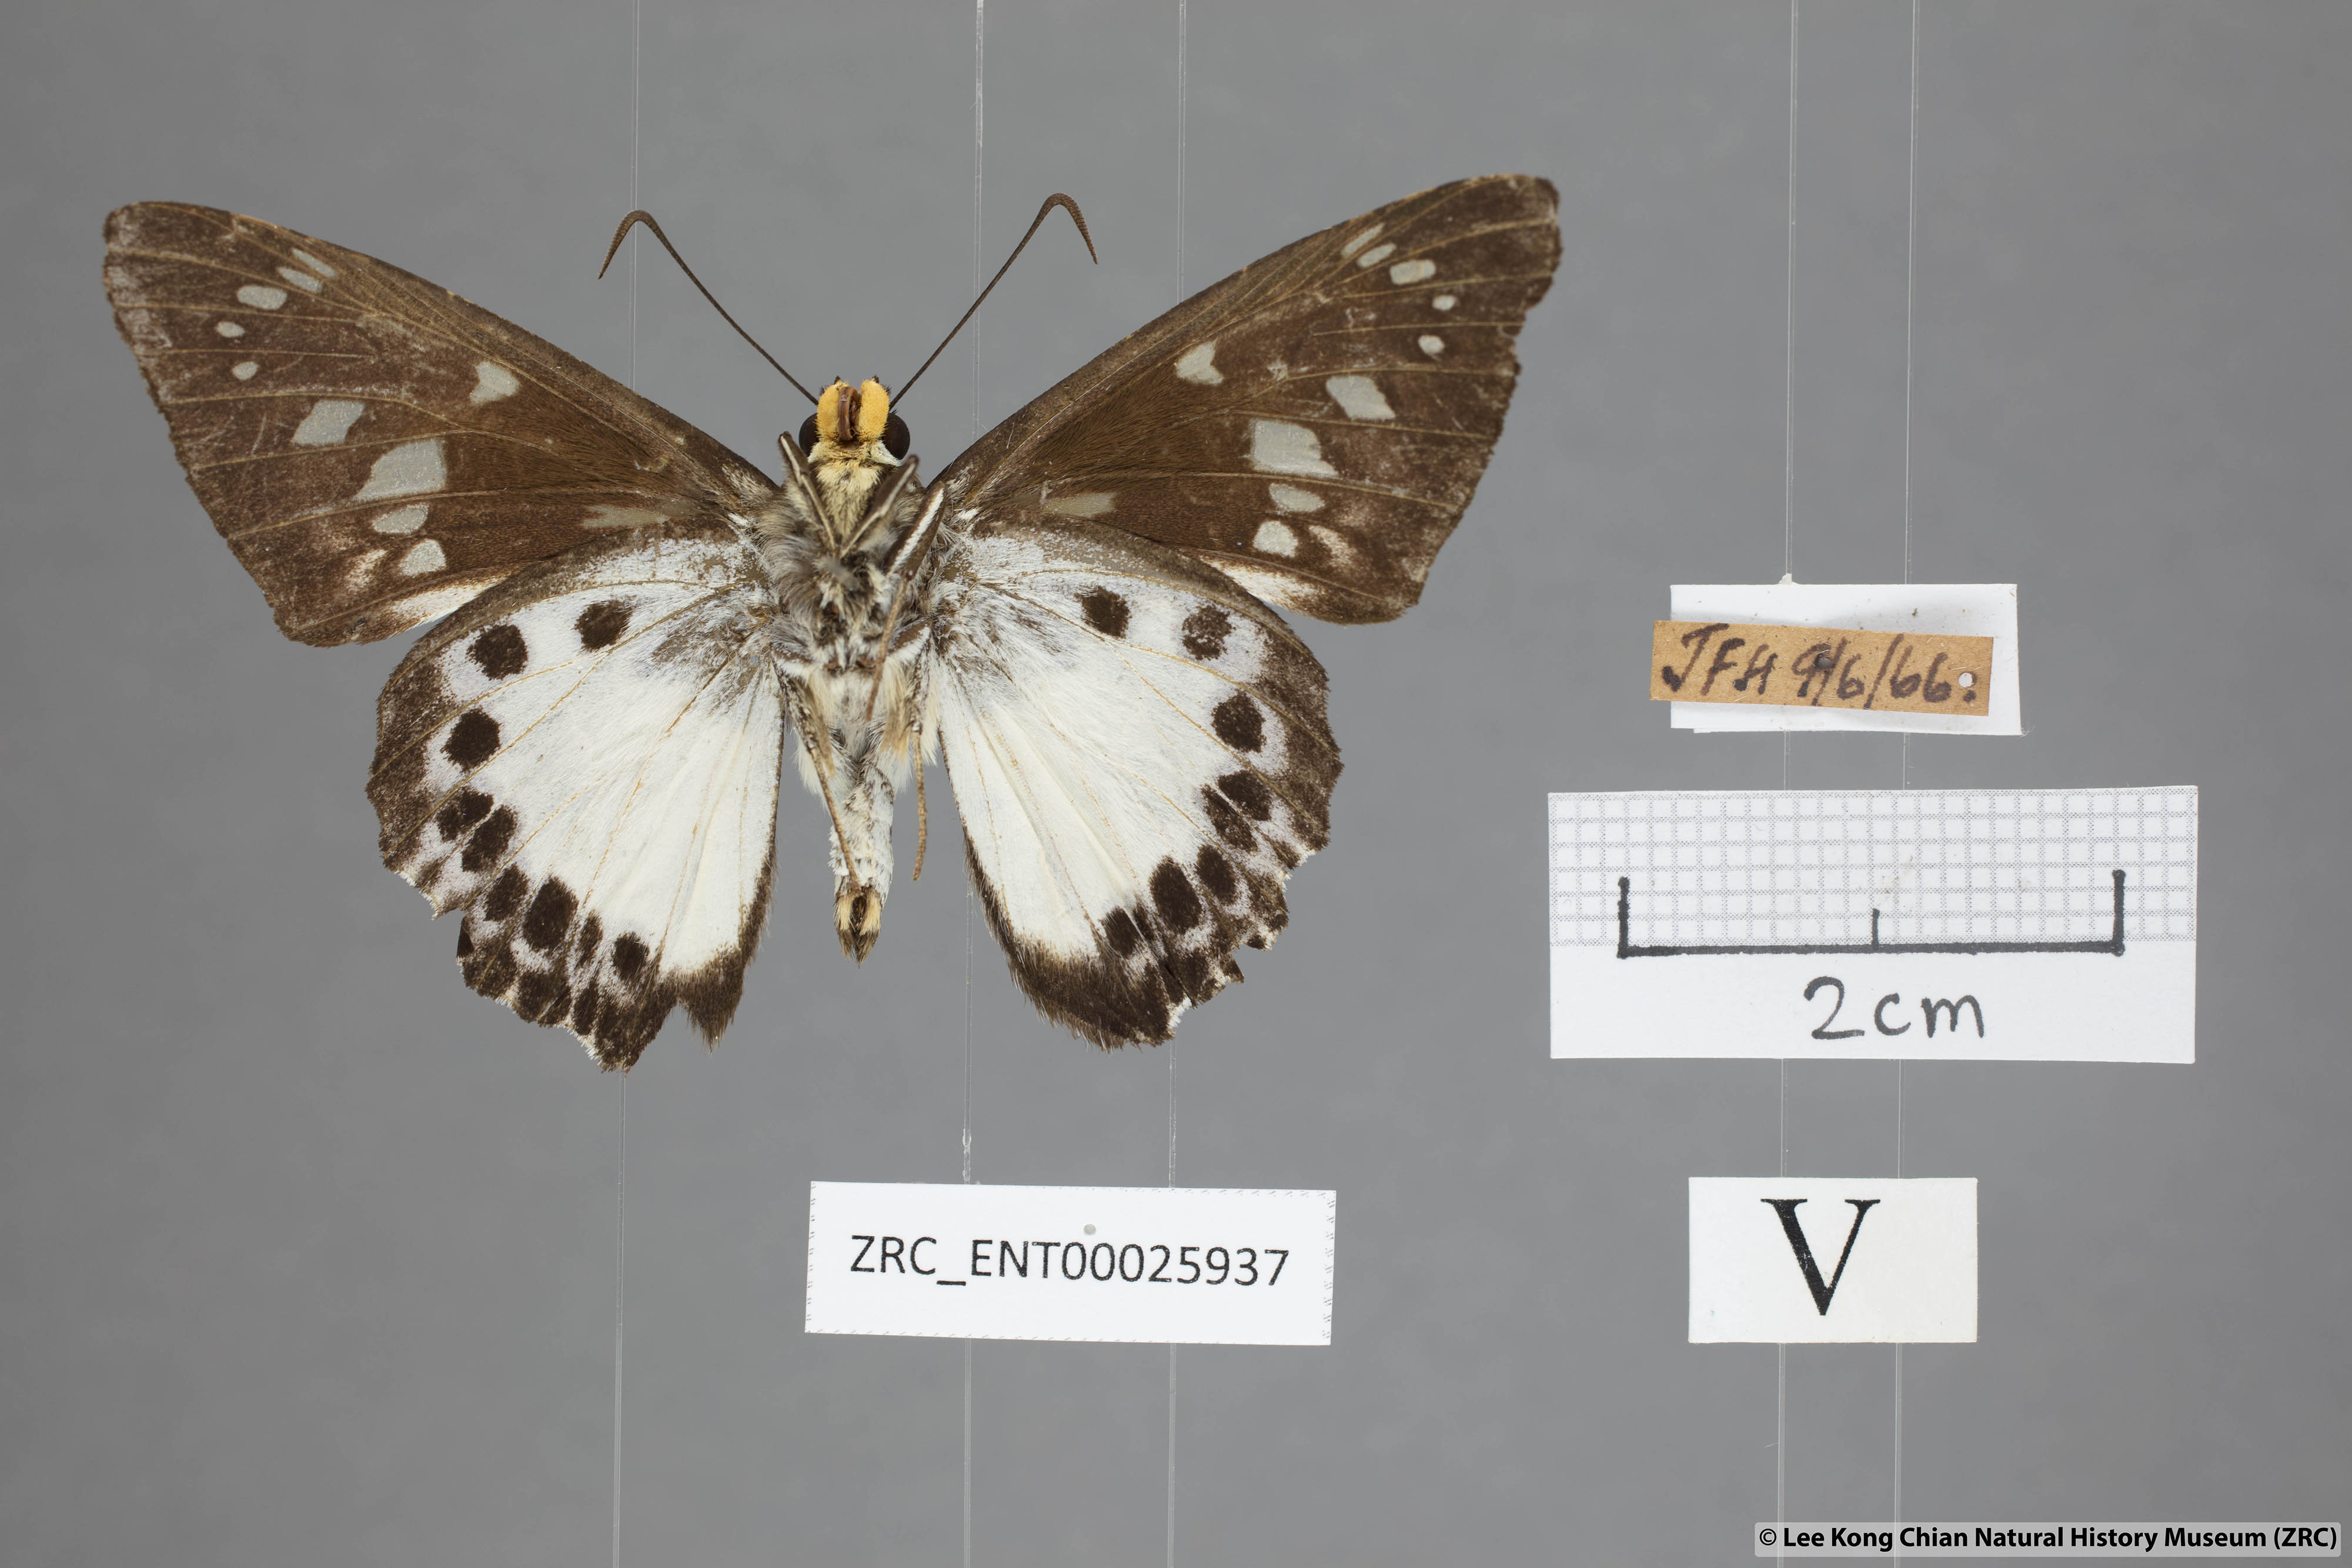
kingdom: Animalia
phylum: Arthropoda
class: Insecta
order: Lepidoptera
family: Hesperiidae
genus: Satarupa
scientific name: Satarupa gopala
